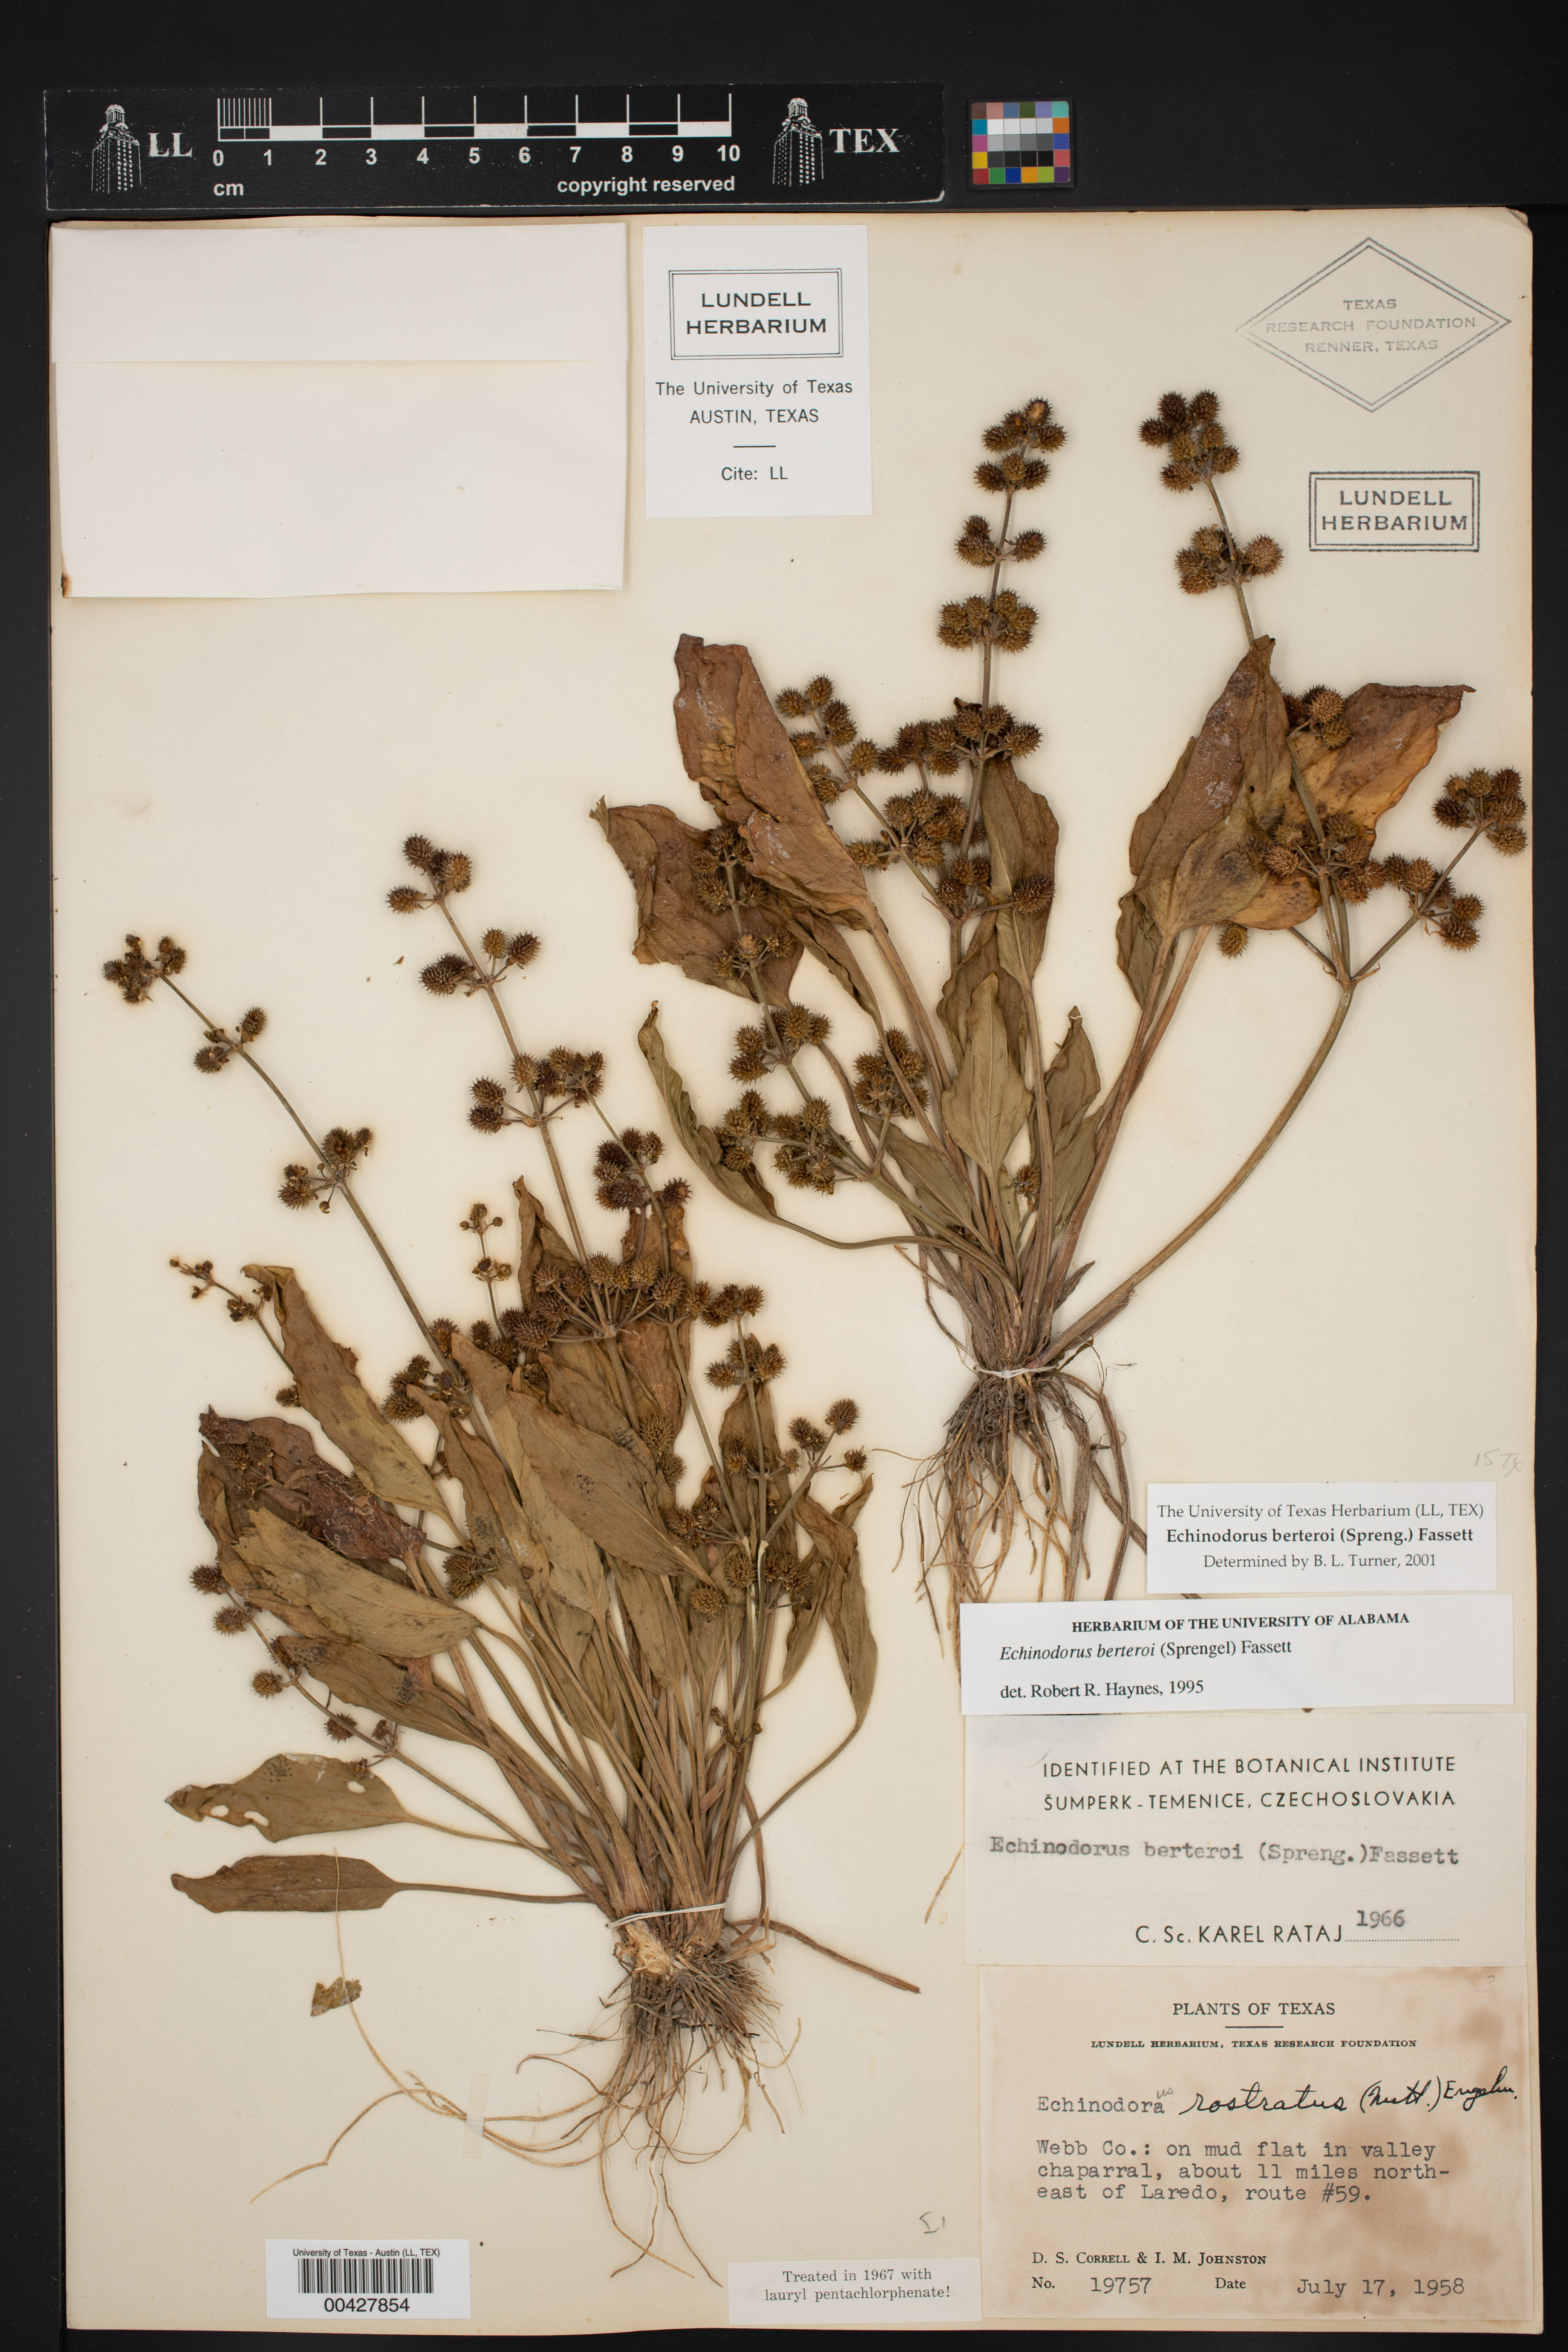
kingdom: Plantae
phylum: Tracheophyta
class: Liliopsida
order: Alismatales
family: Alismataceae
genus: Echinodorus
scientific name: Echinodorus berteroi
